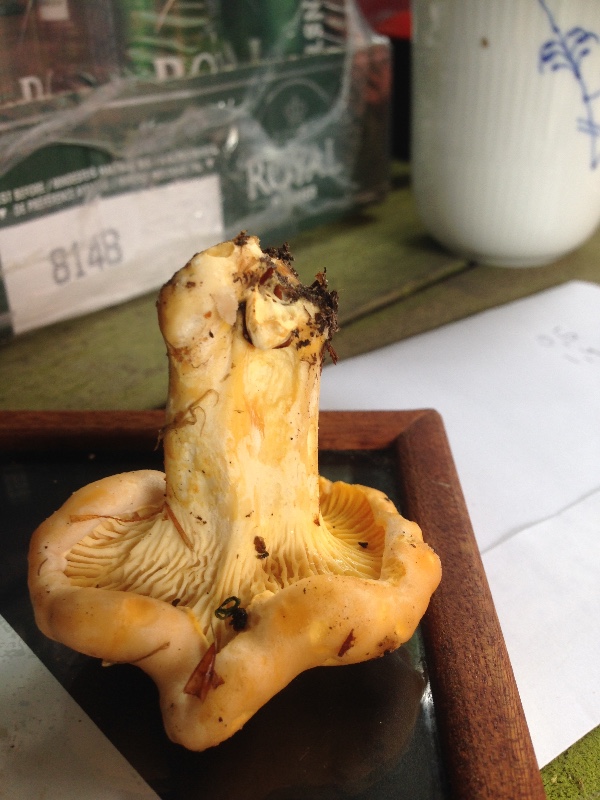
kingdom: Fungi
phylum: Basidiomycota
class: Agaricomycetes
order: Cantharellales
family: Hydnaceae
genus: Cantharellus
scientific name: Cantharellus pallens
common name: bleg kantarel
